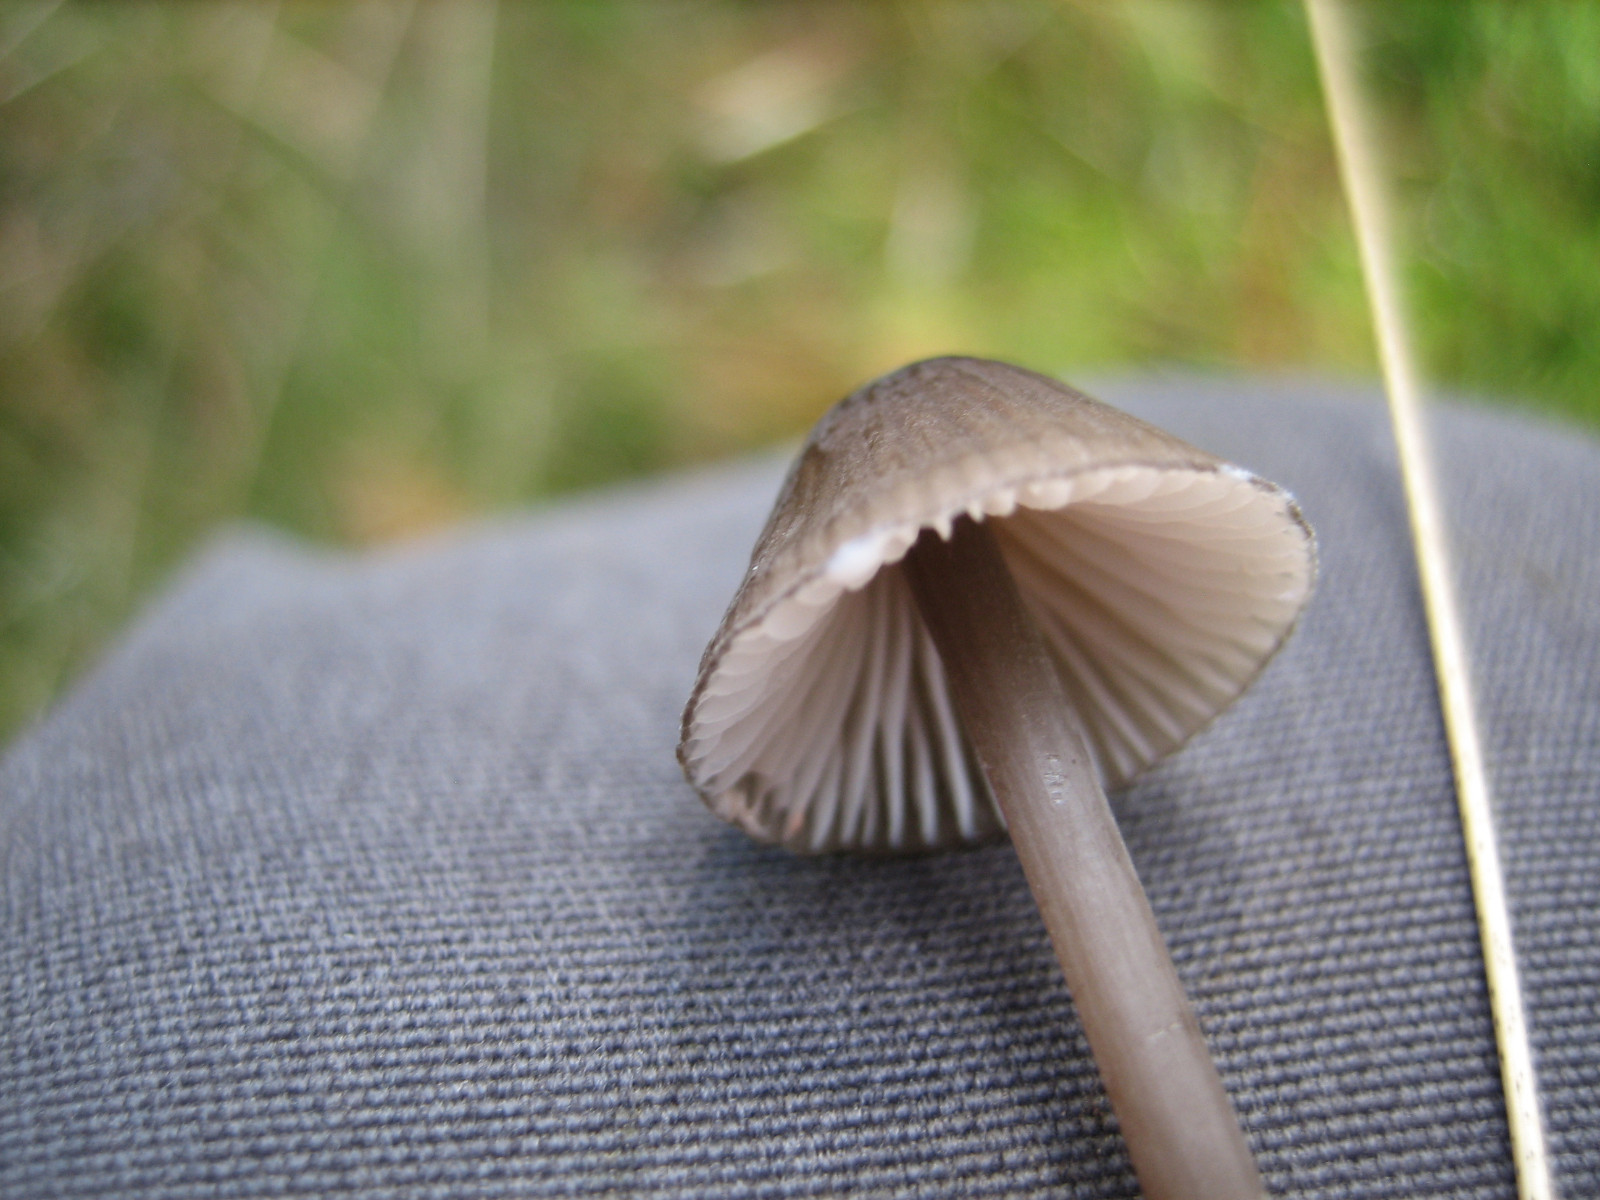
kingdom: Fungi
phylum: Basidiomycota
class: Agaricomycetes
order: Agaricales
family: Mycenaceae
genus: Mycena
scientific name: Mycena galopus
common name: hvidmælket huesvamp
